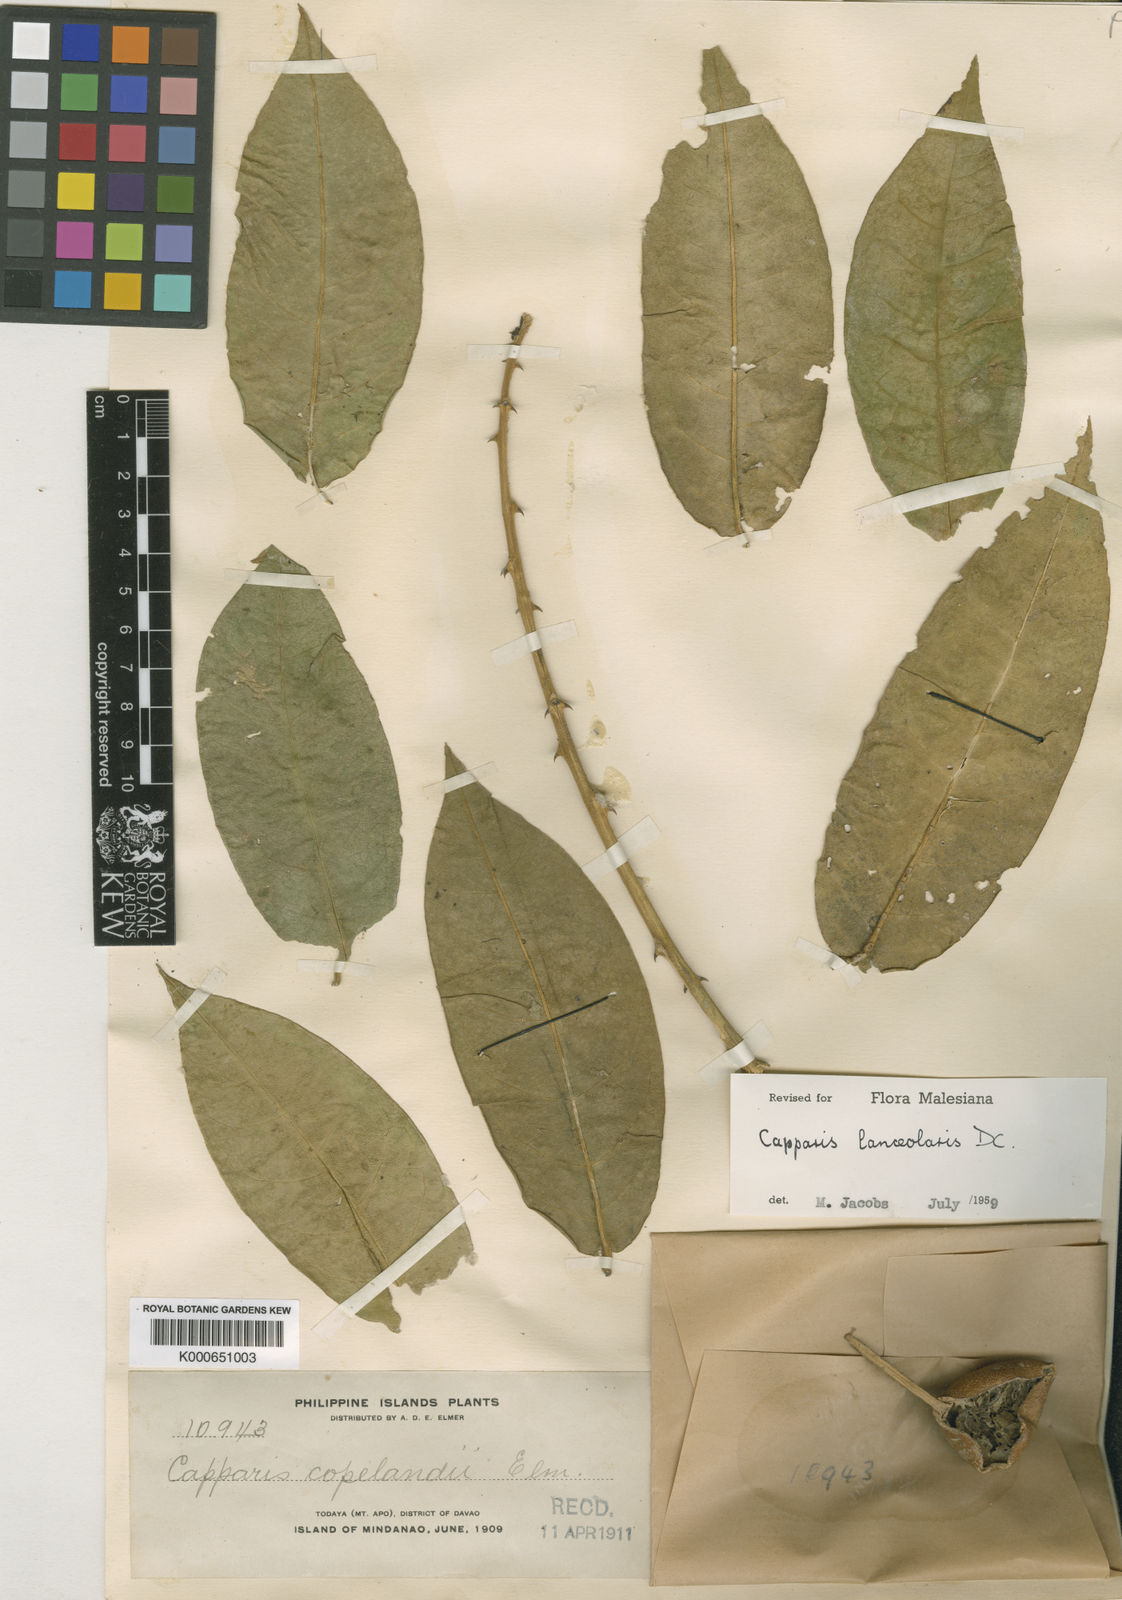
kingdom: Plantae
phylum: Tracheophyta
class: Magnoliopsida
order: Brassicales
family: Capparaceae
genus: Capparis
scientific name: Capparis lanceolaris
